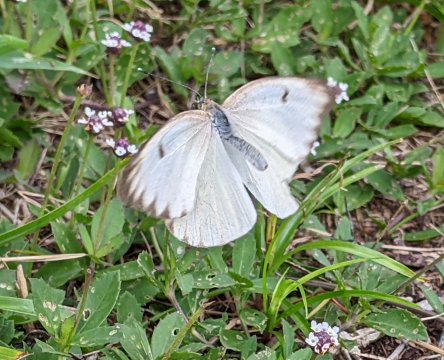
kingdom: Animalia
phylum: Arthropoda
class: Insecta
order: Lepidoptera
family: Pieridae
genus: Ascia
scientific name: Ascia monuste
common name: Great Southern White
